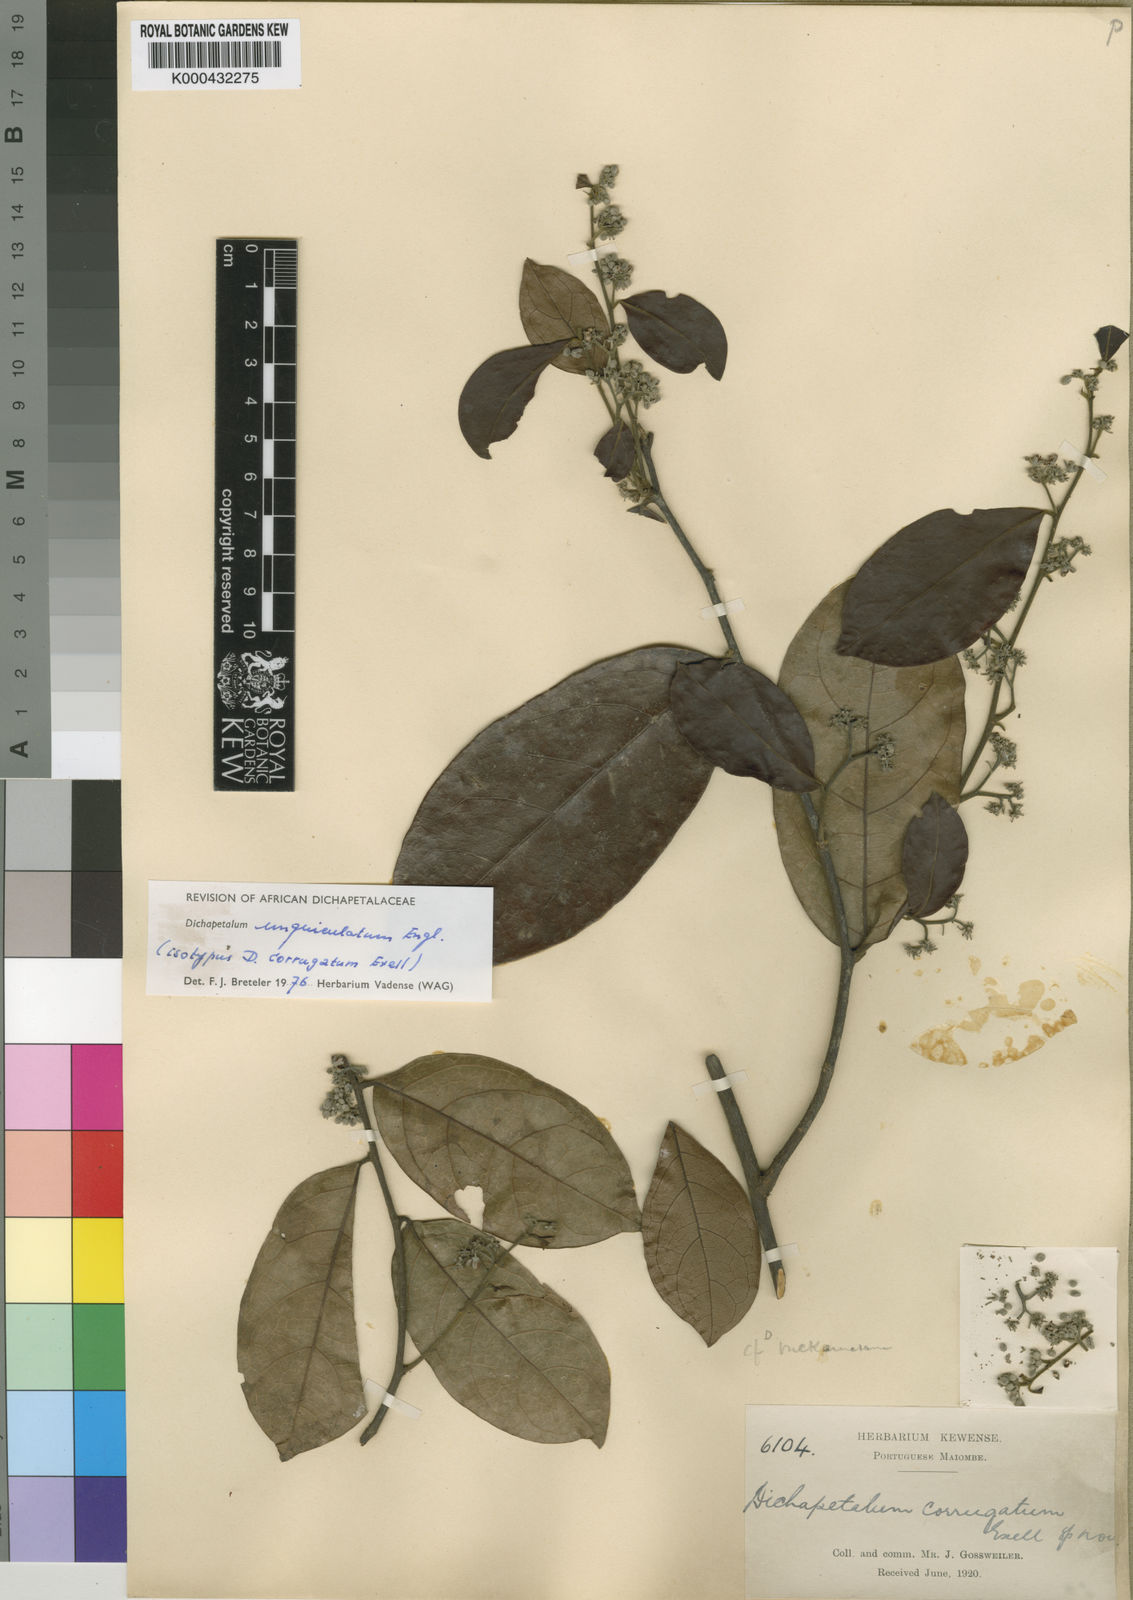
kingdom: Plantae
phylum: Tracheophyta
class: Magnoliopsida
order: Malpighiales
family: Dichapetalaceae
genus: Dichapetalum
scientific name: Dichapetalum unguiculatum
